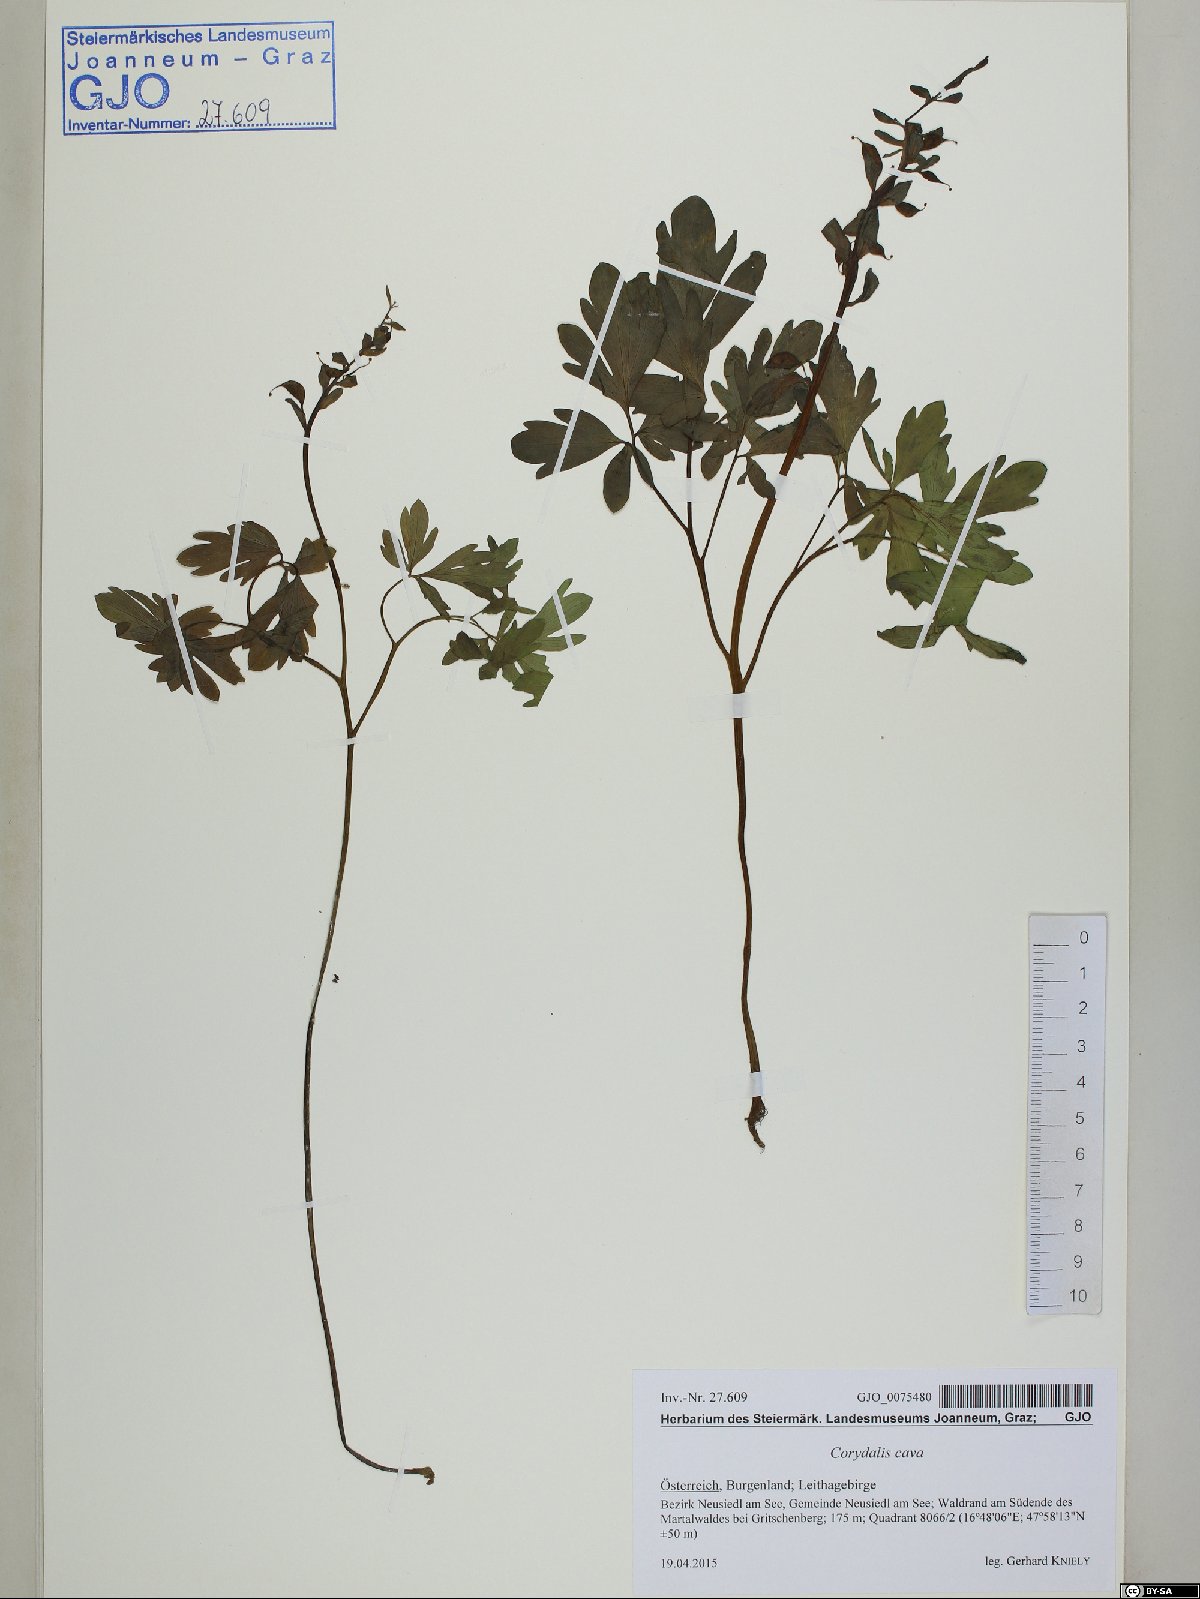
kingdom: Plantae
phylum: Tracheophyta
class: Magnoliopsida
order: Ranunculales
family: Papaveraceae
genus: Corydalis
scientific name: Corydalis cava
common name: Hollowroot
